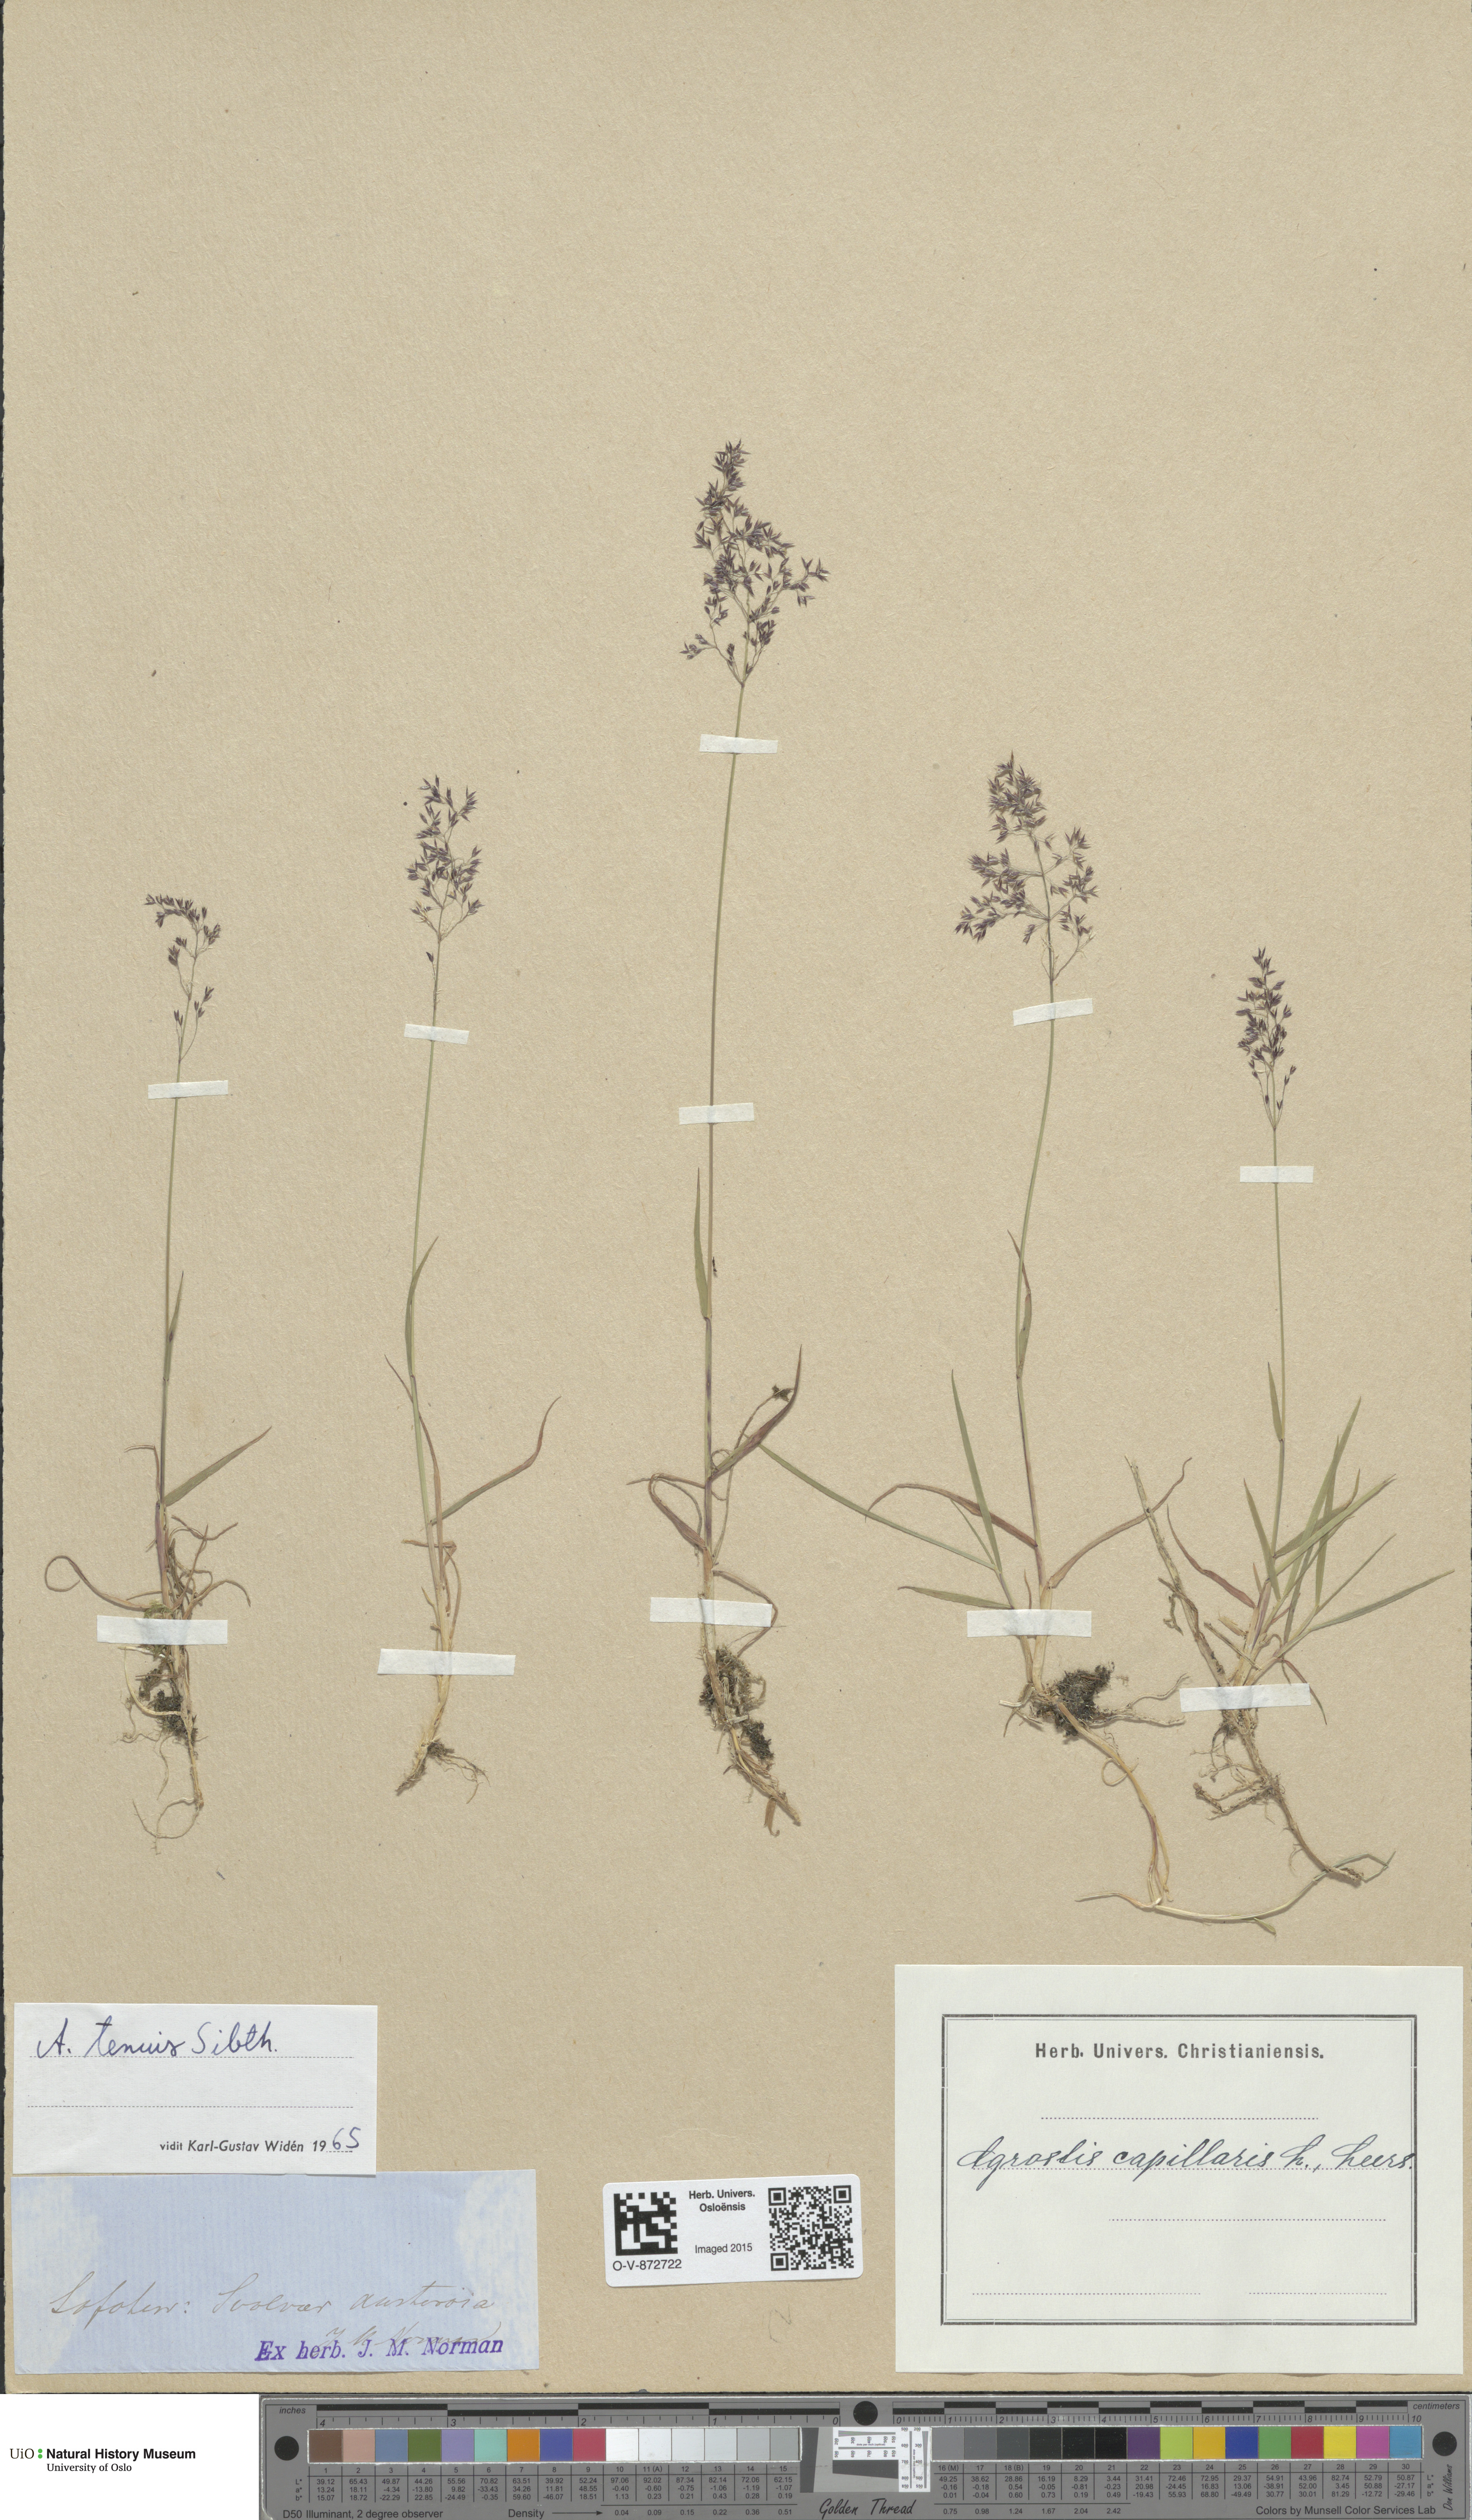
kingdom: Plantae
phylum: Tracheophyta
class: Liliopsida
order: Poales
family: Poaceae
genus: Agrostis
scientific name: Agrostis capillaris
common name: Colonial bentgrass
